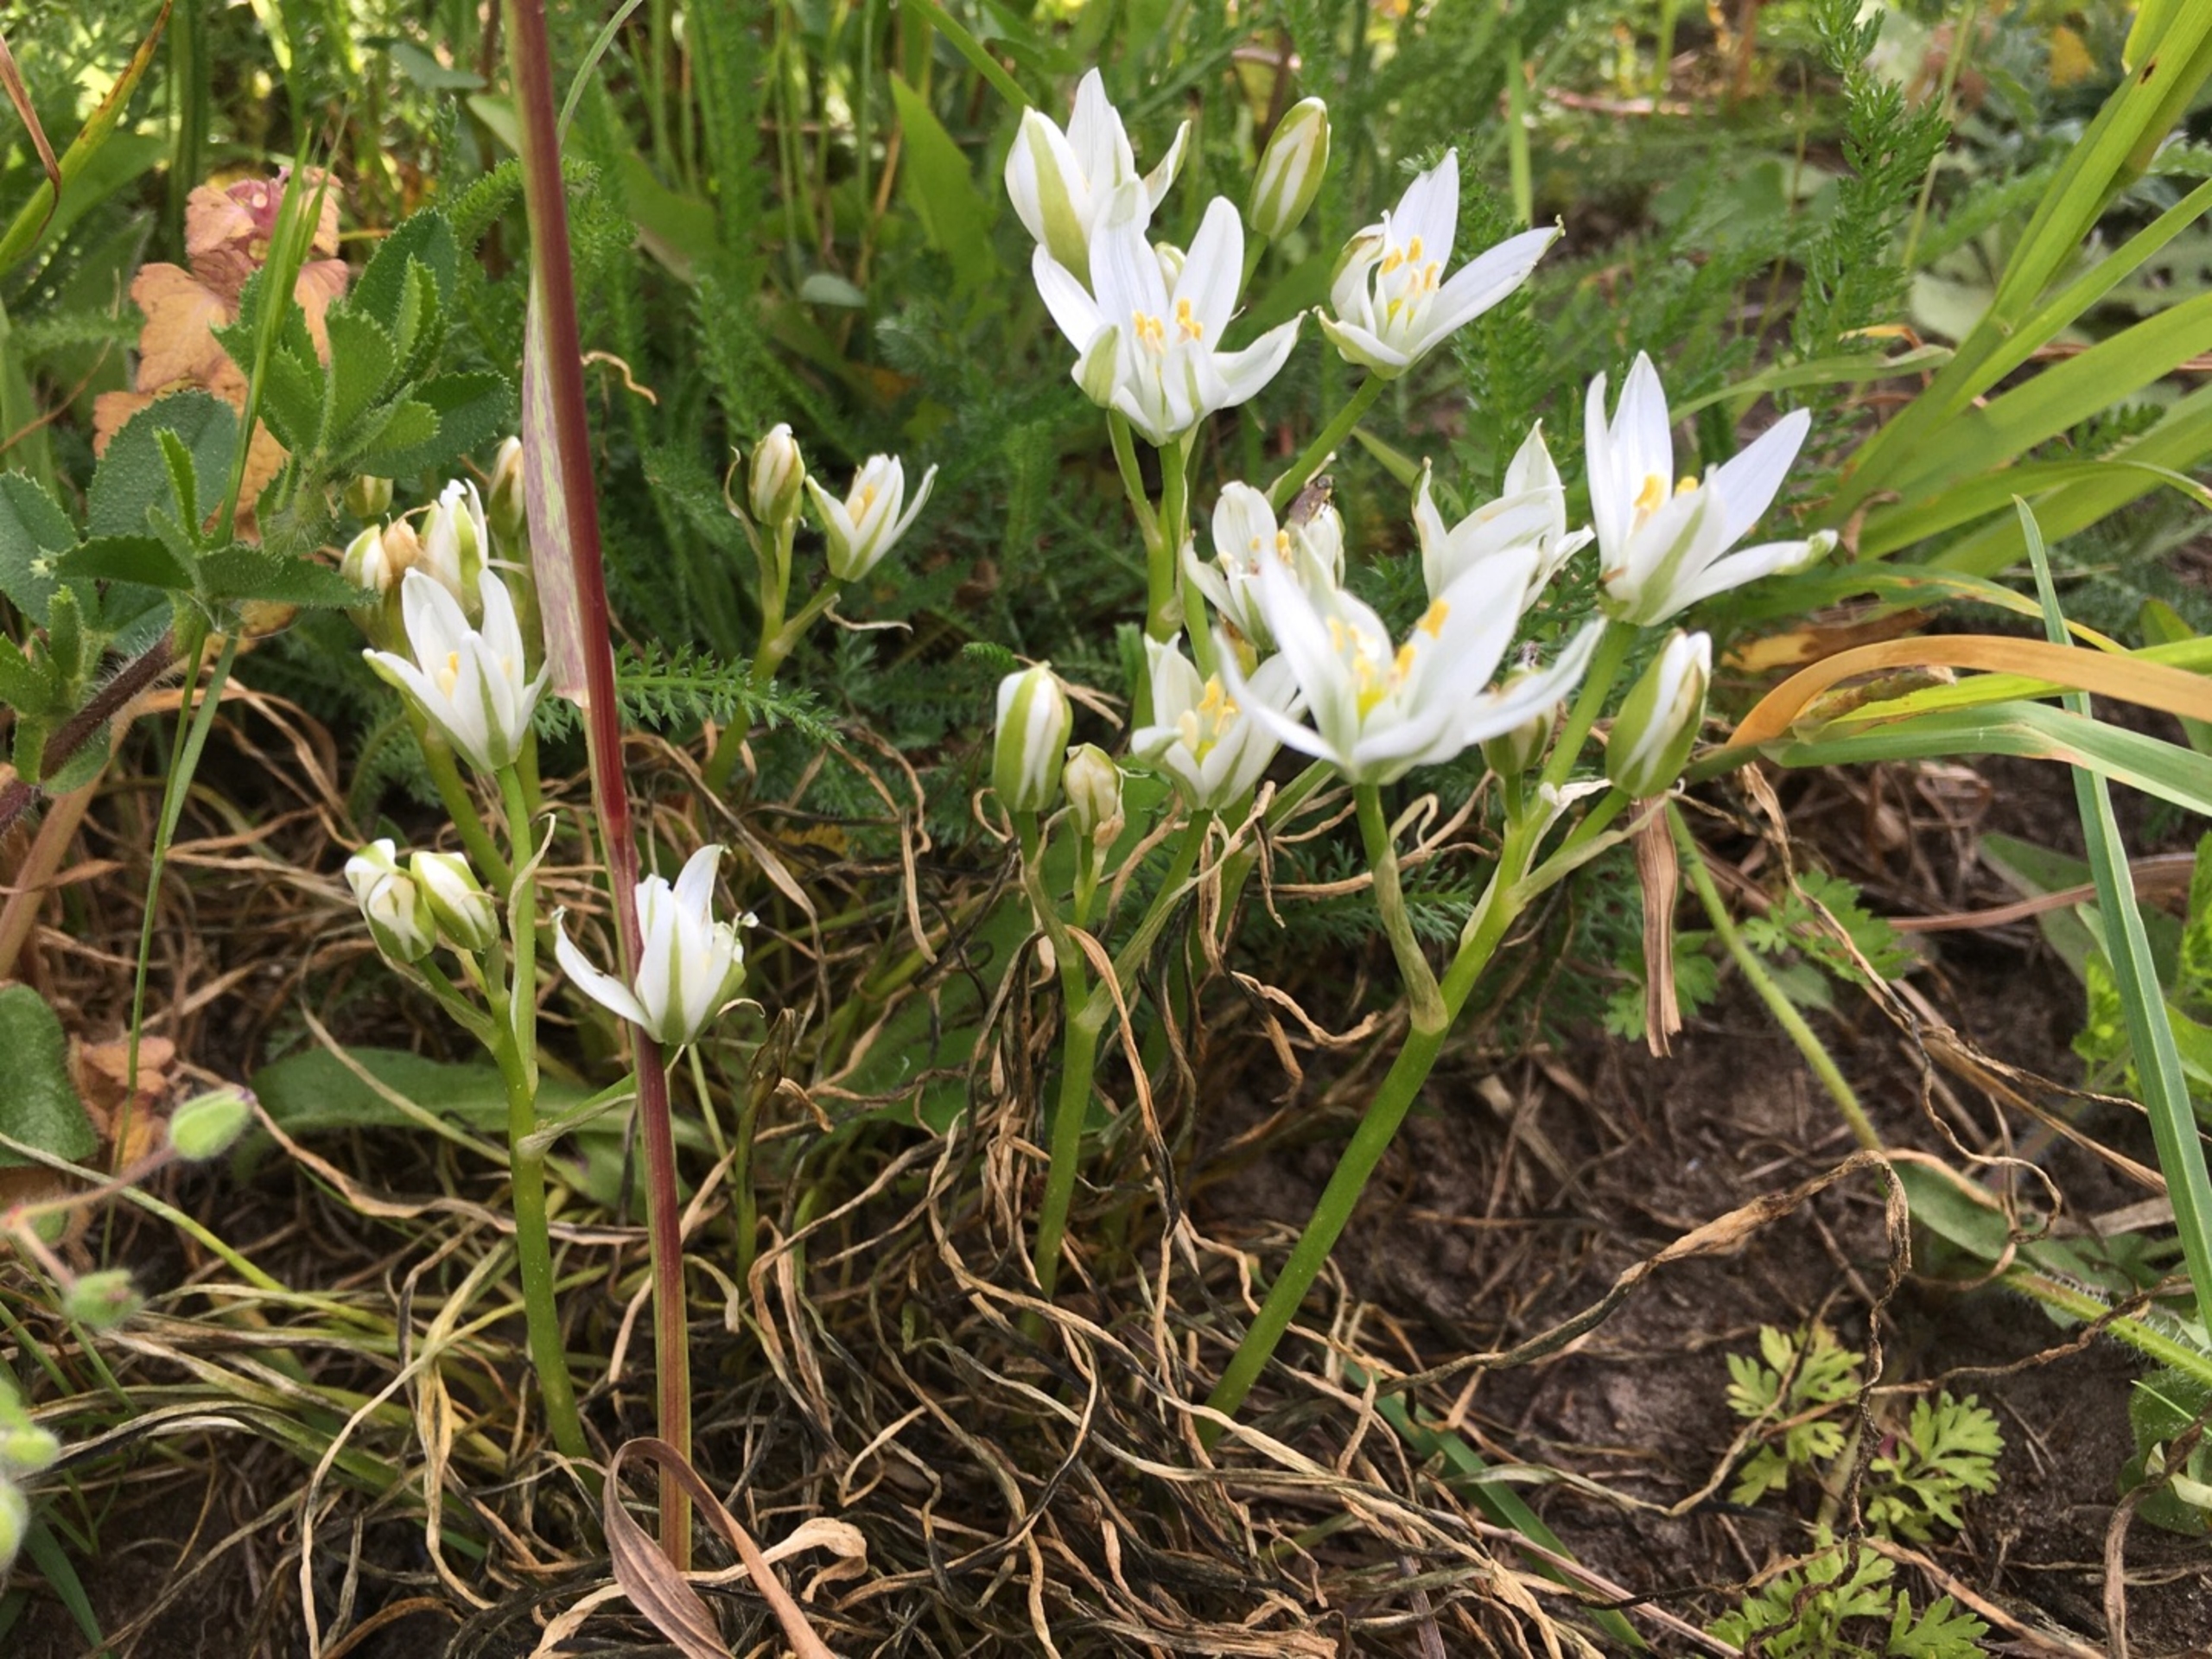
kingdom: Plantae
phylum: Tracheophyta
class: Liliopsida
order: Asparagales
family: Asparagaceae
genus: Ornithogalum
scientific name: Ornithogalum umbellatum
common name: Kost-fuglemælk
